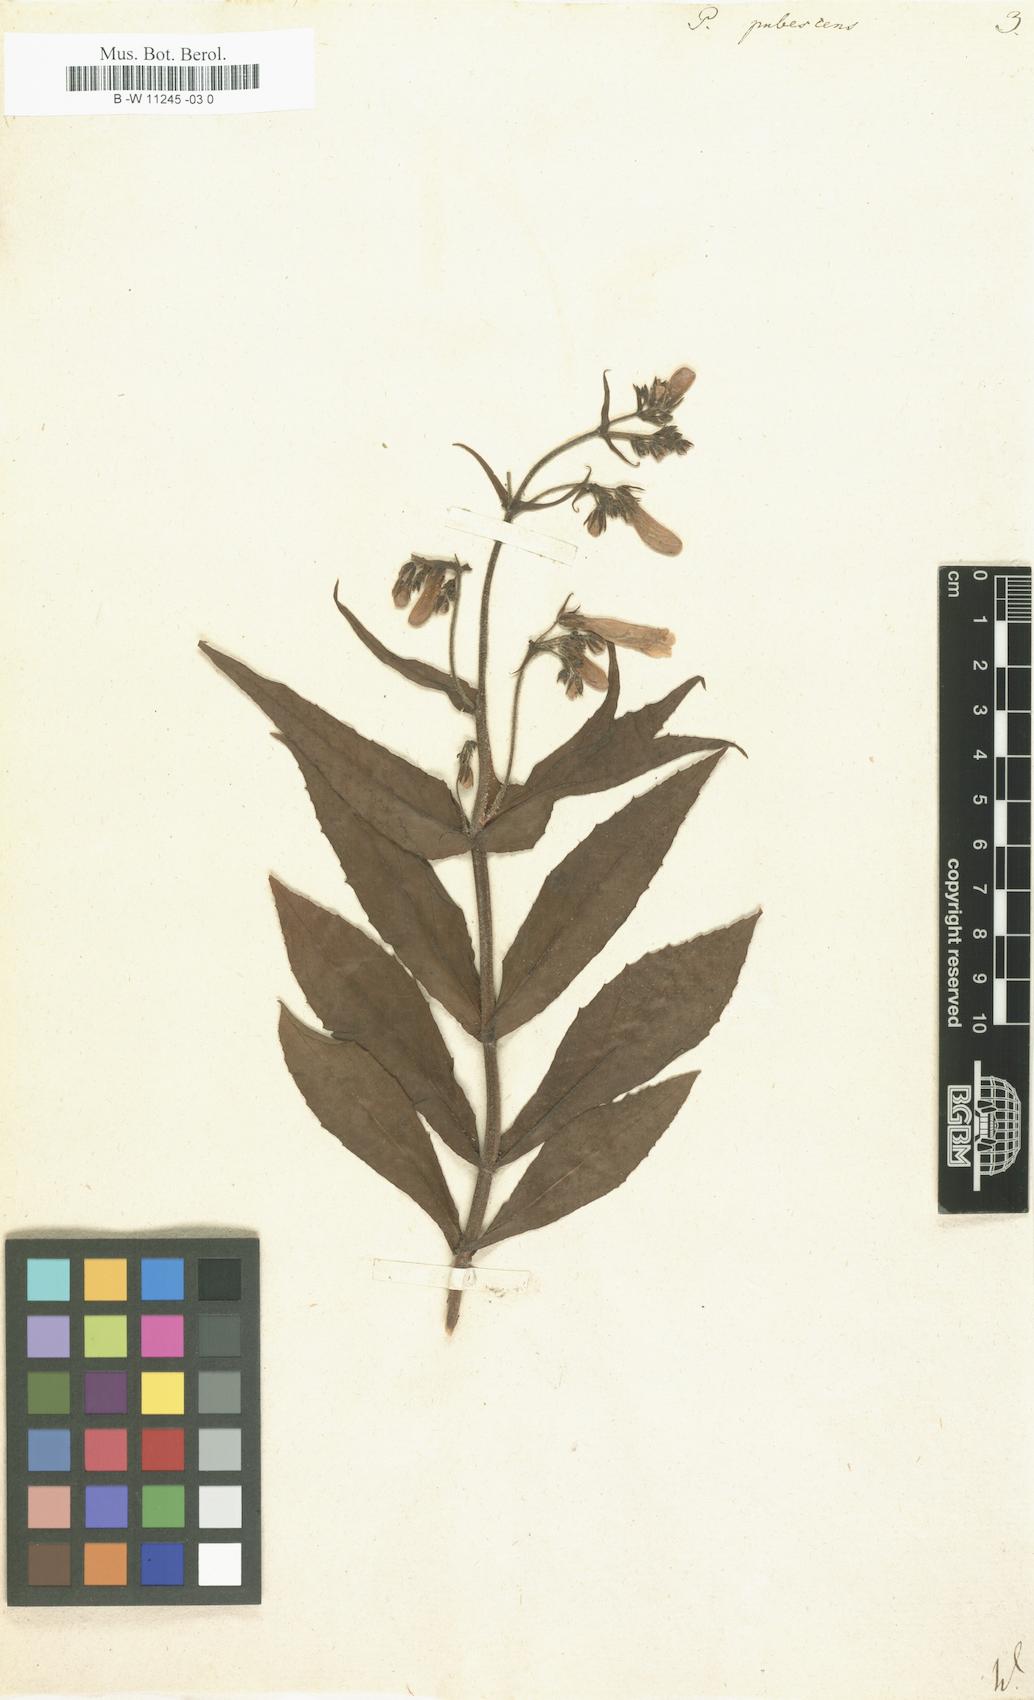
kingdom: Plantae
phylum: Tracheophyta
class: Magnoliopsida
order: Lamiales
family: Scrophulariaceae
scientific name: Scrophulariaceae
